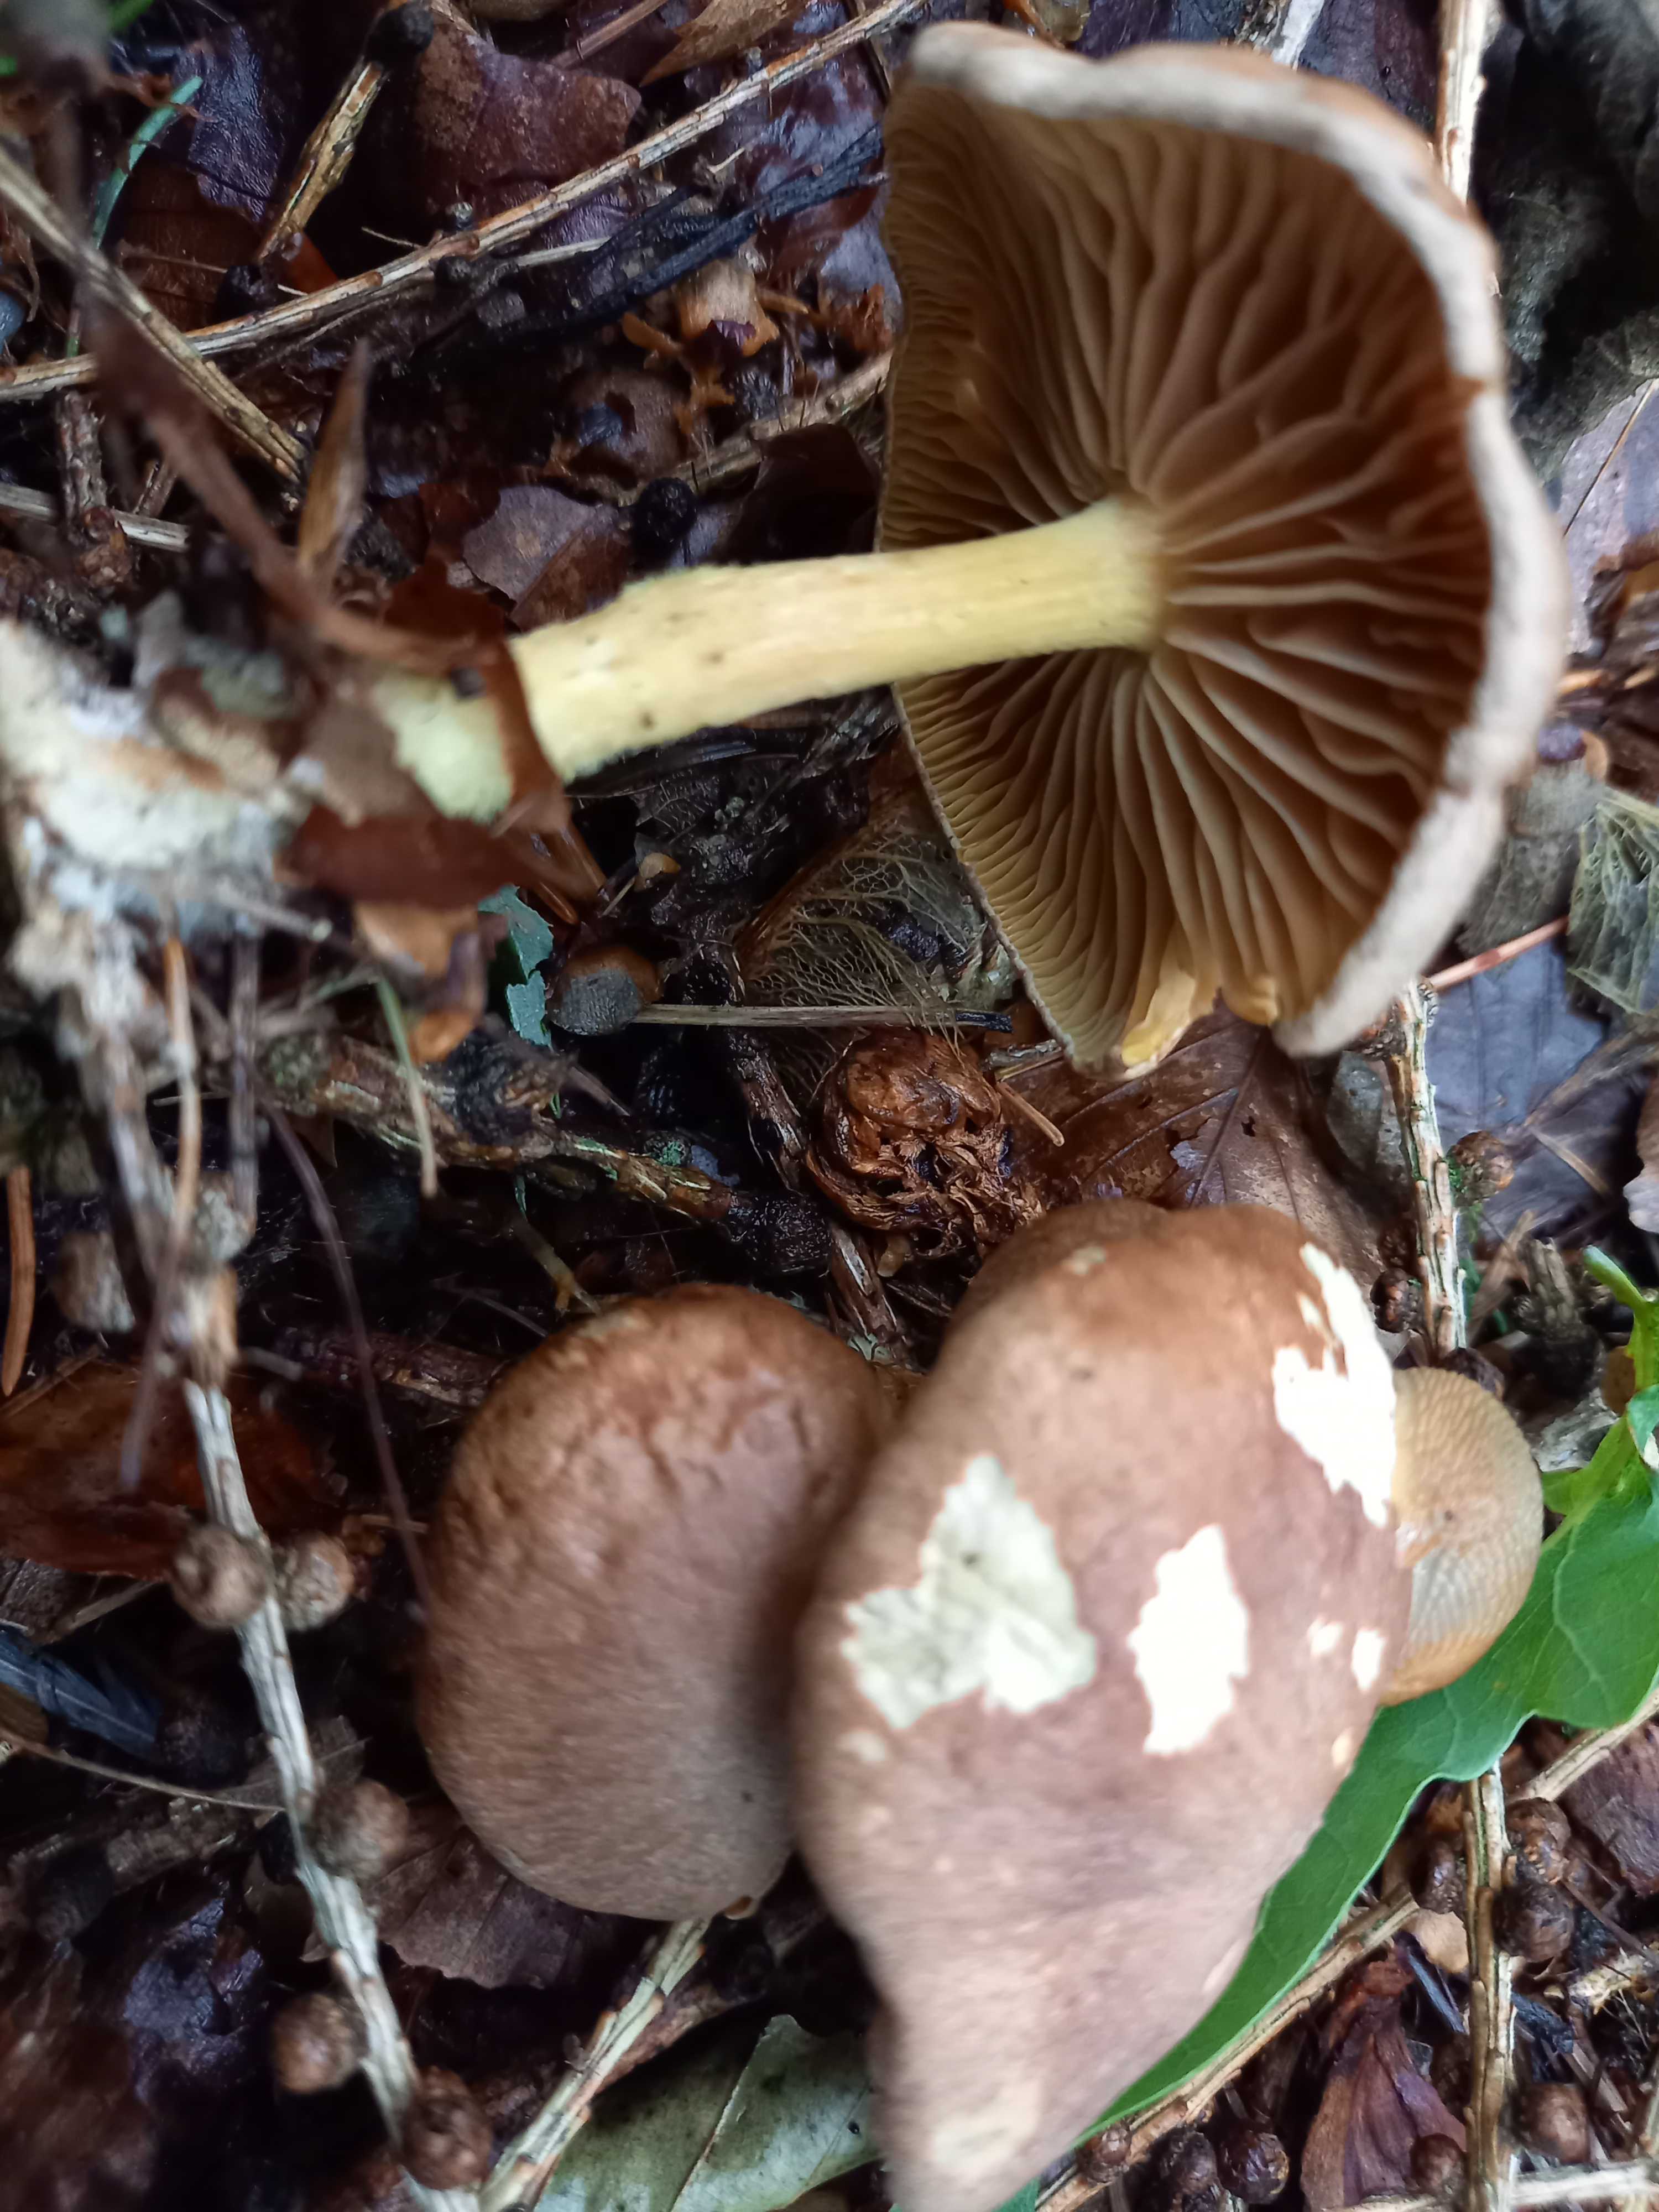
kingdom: Fungi
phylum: Basidiomycota
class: Agaricomycetes
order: Agaricales
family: Omphalotaceae
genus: Collybiopsis
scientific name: Collybiopsis peronata
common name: bestøvlet fladhat
